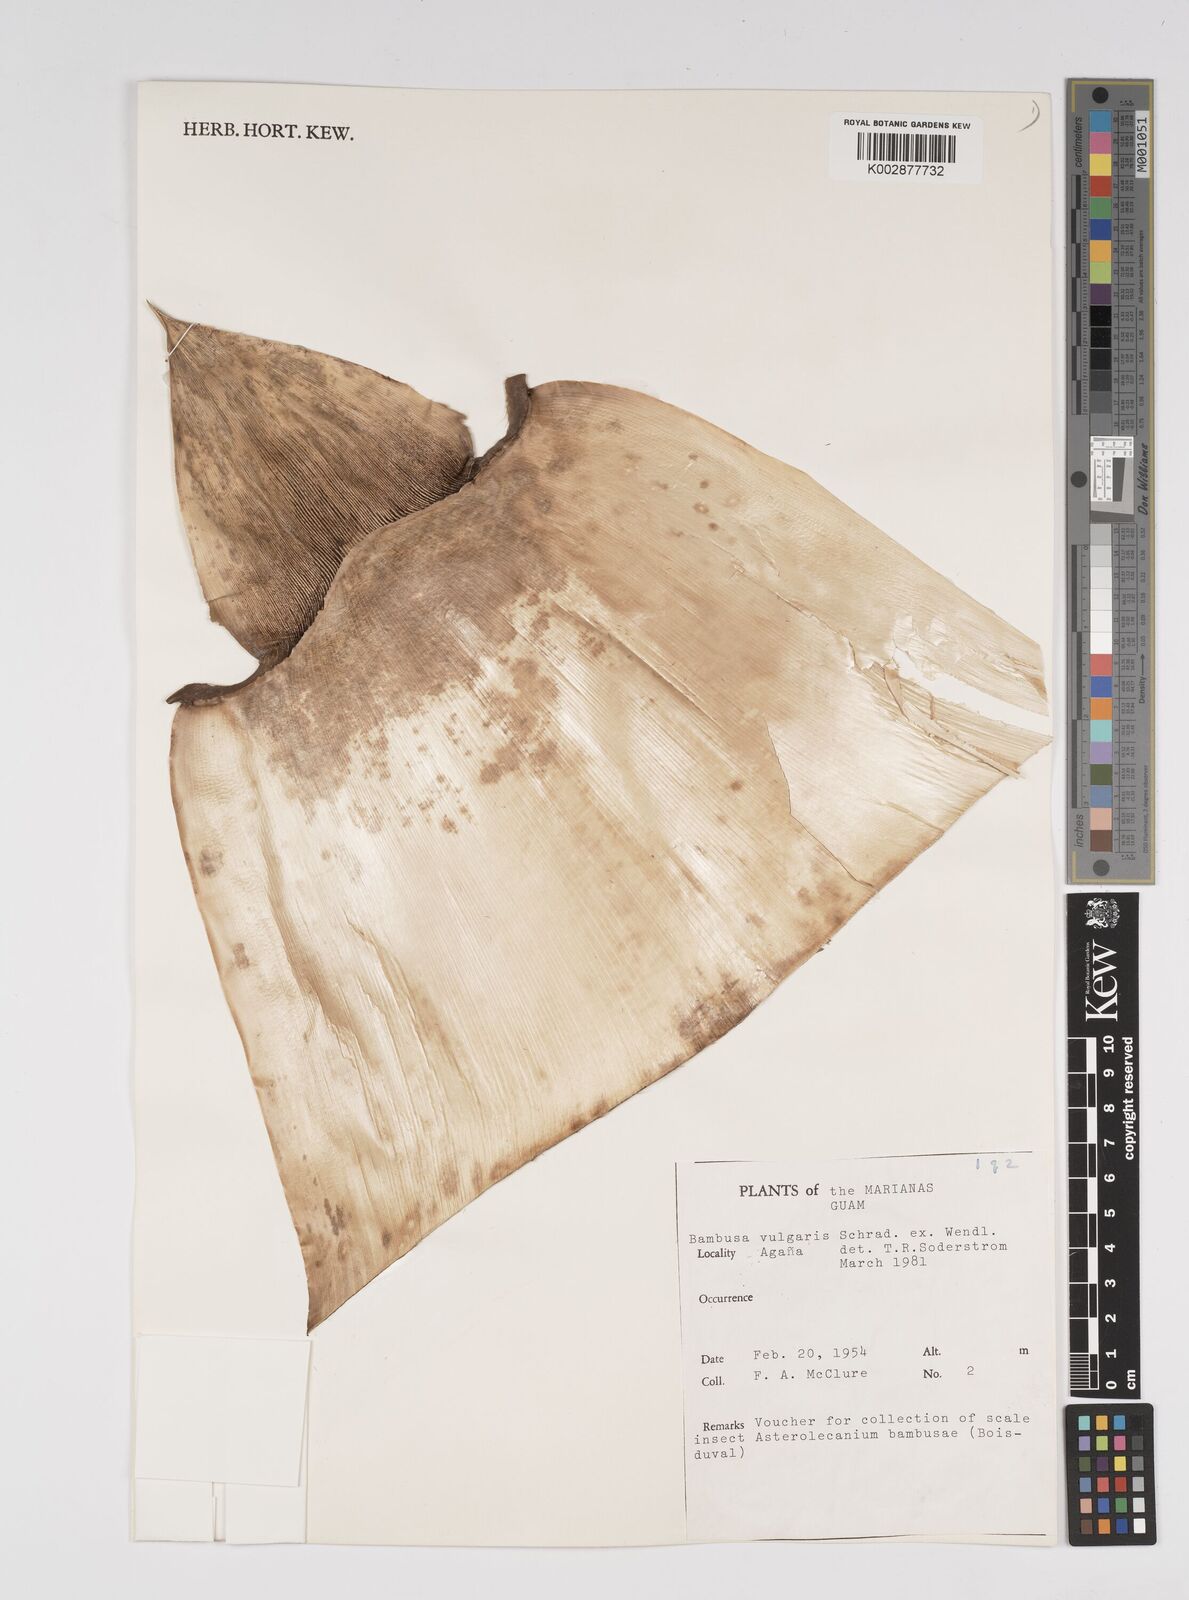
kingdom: Plantae
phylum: Tracheophyta
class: Liliopsida
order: Poales
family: Poaceae
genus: Bambusa
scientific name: Bambusa vulgaris
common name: Common bamboo
